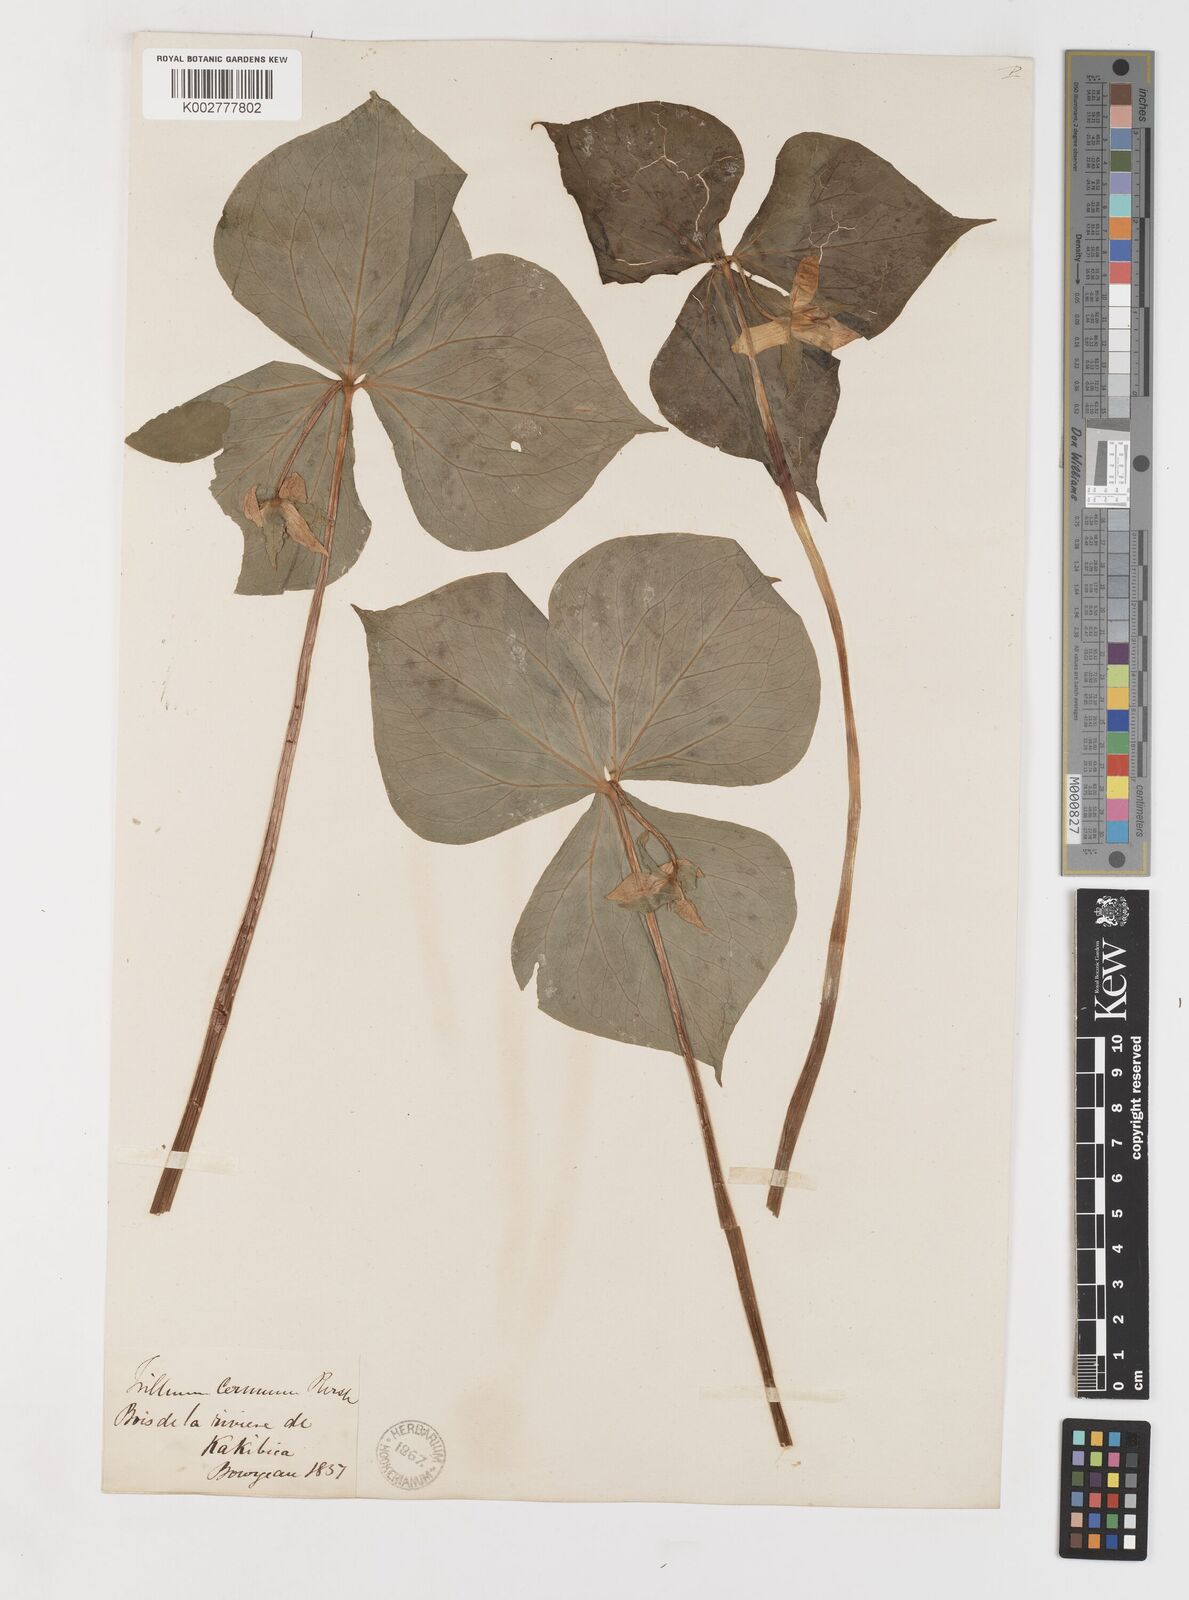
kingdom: Plantae
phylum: Tracheophyta
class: Liliopsida
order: Liliales
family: Melanthiaceae
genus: Trillium
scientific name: Trillium cernuum
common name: Nodding trillium
